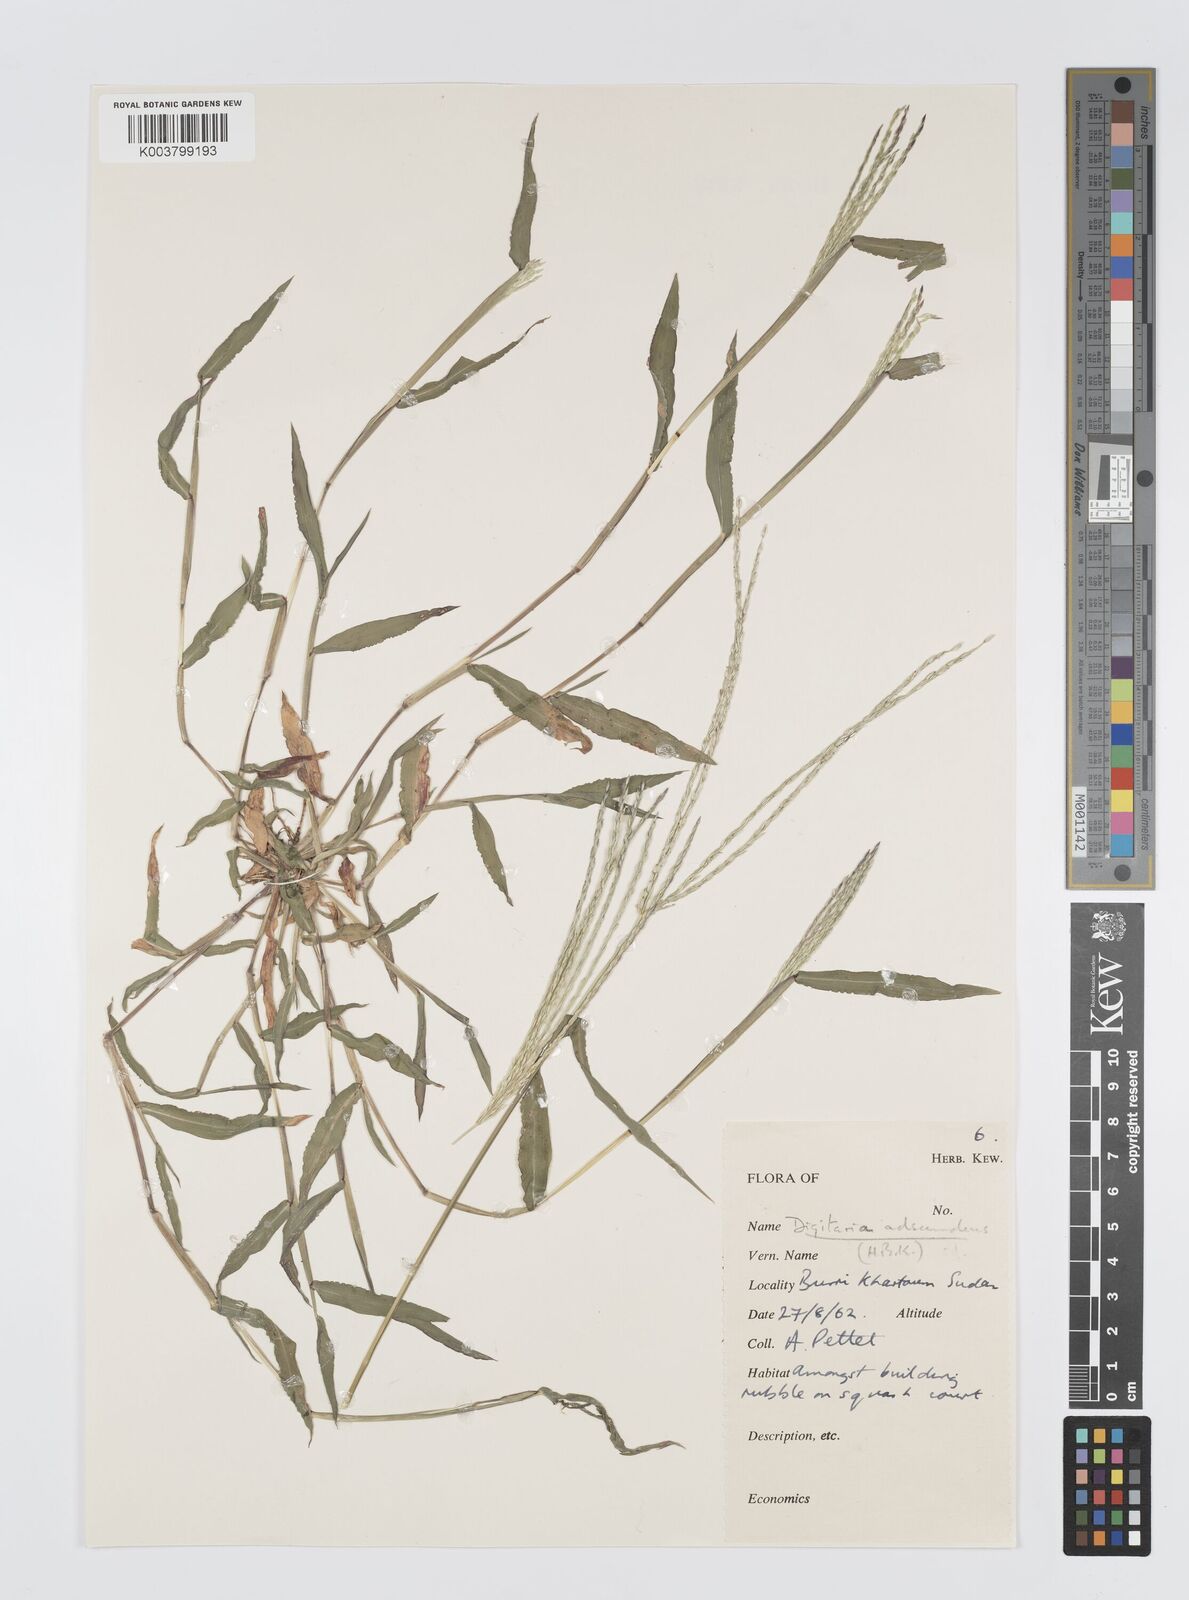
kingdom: Plantae
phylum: Tracheophyta
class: Liliopsida
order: Poales
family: Poaceae
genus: Digitaria
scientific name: Digitaria spec
